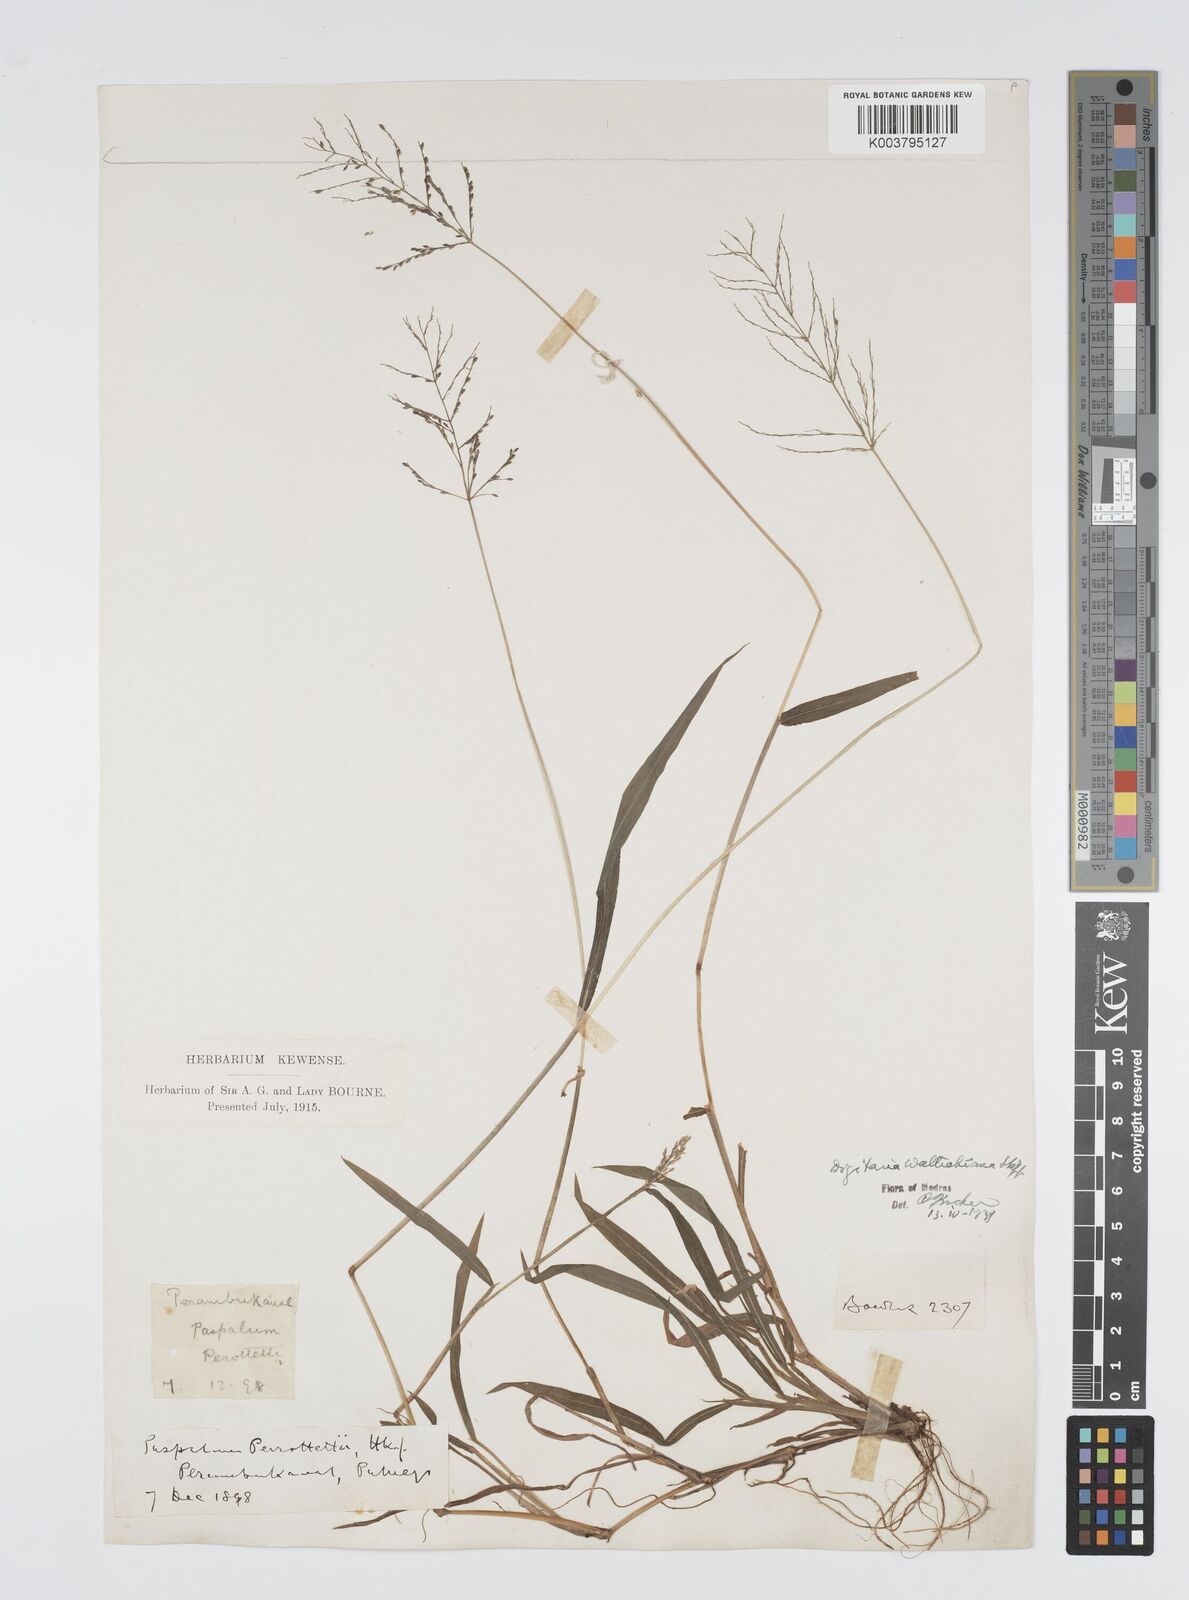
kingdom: Plantae
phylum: Tracheophyta
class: Liliopsida
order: Poales
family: Poaceae
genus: Digitaria
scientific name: Digitaria wallichiana
